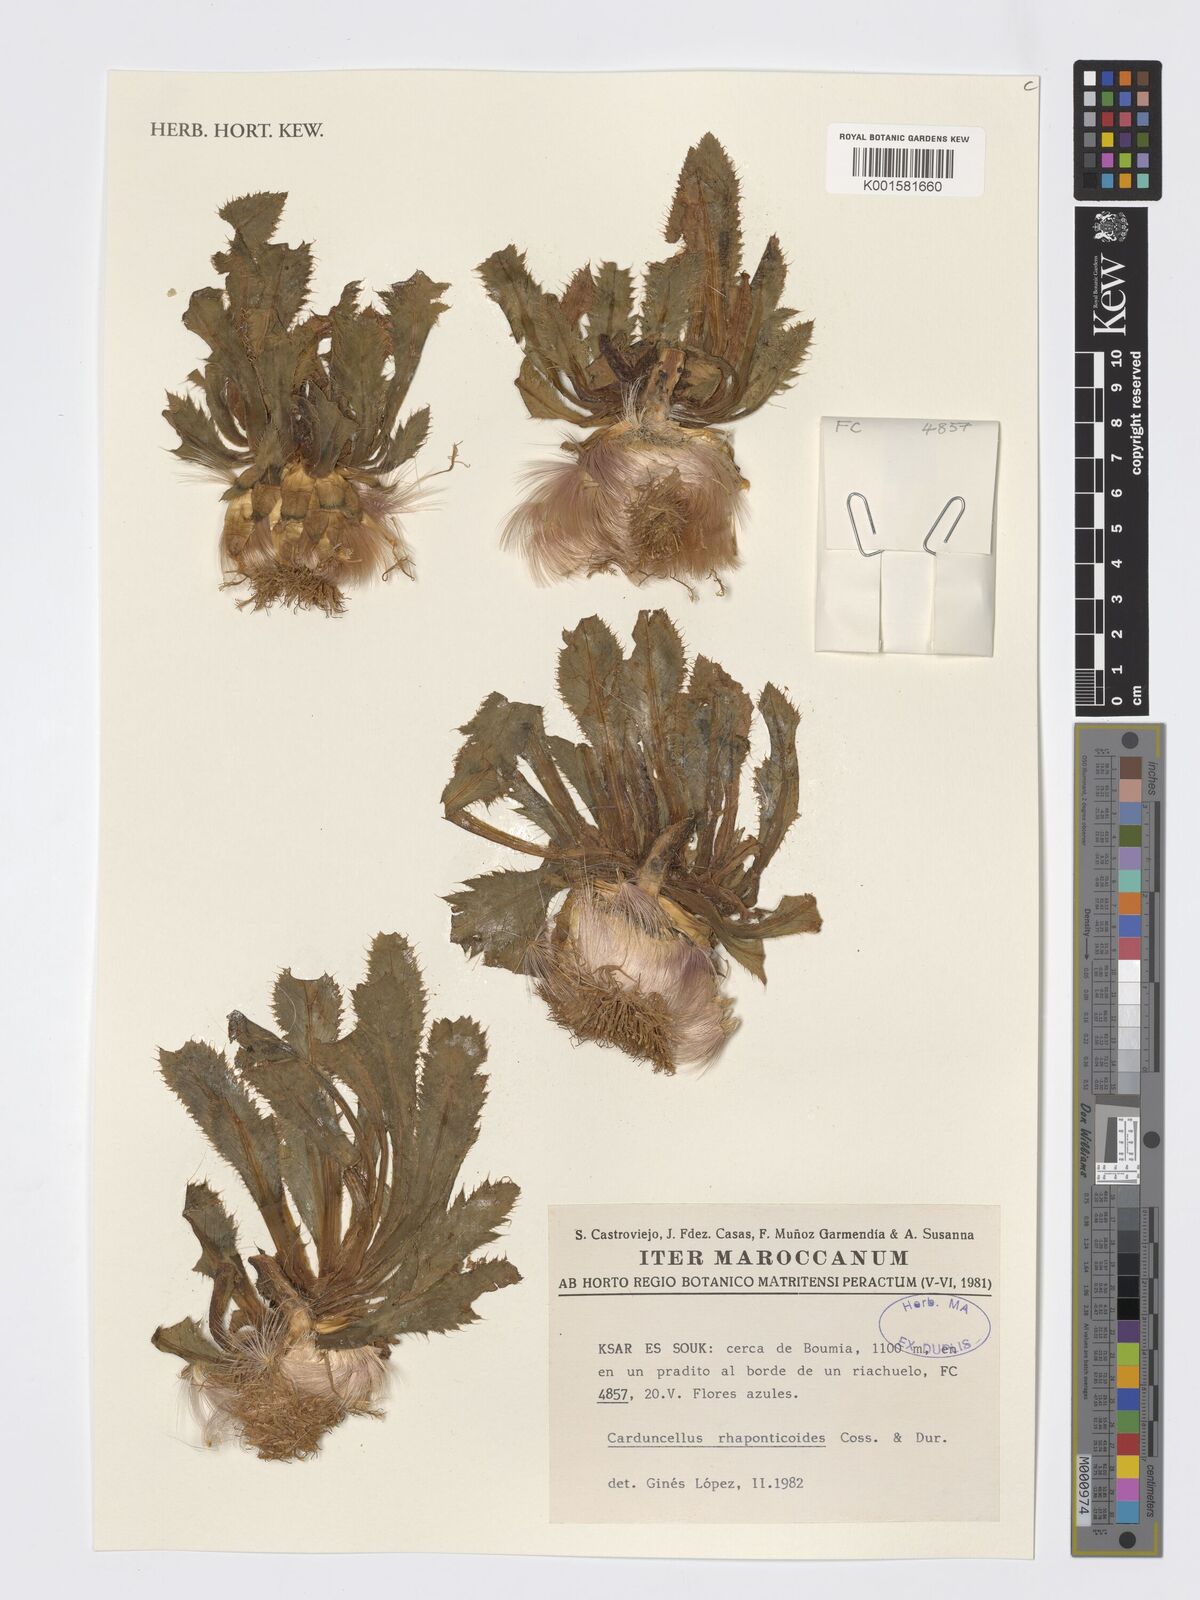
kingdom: Plantae
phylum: Tracheophyta
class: Magnoliopsida
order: Asterales
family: Asteraceae
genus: Carduncellus
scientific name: Carduncellus rhaponticoides
